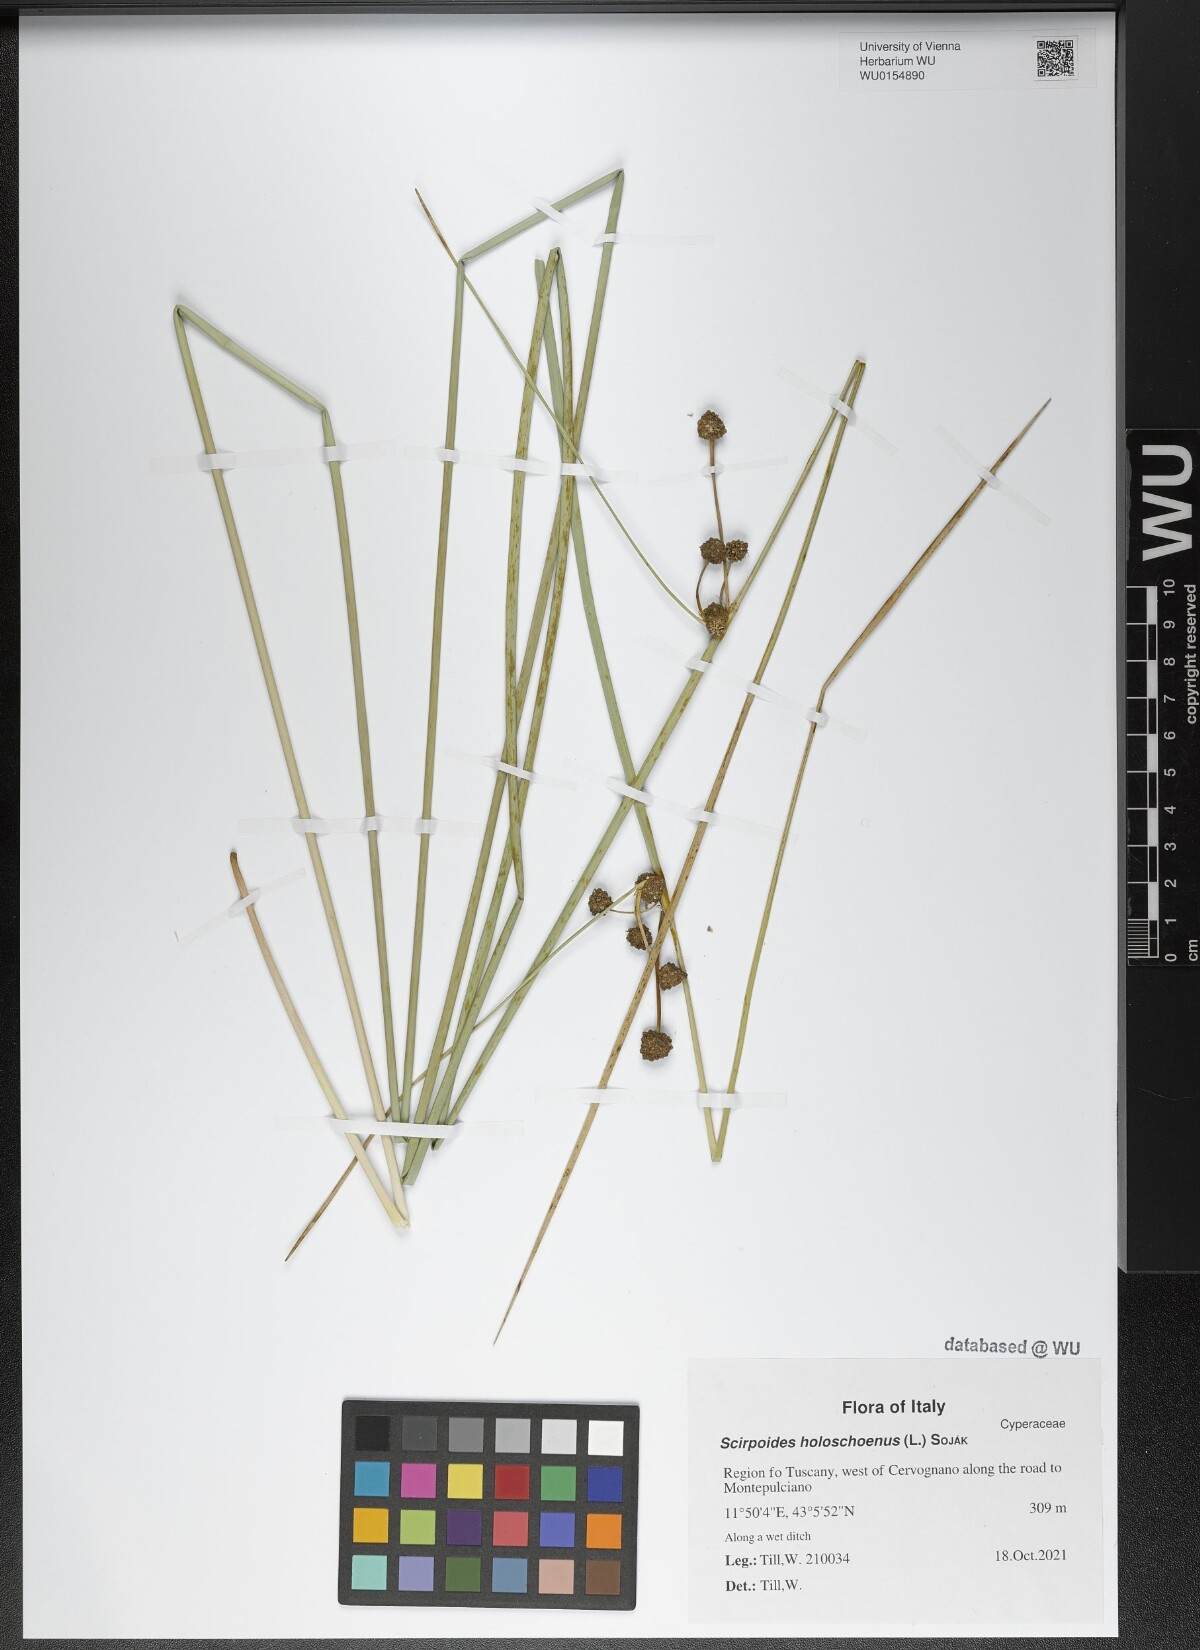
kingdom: Plantae
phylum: Tracheophyta
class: Liliopsida
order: Poales
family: Cyperaceae
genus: Scirpoides
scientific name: Scirpoides holoschoenus
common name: Round-headed club-rush
